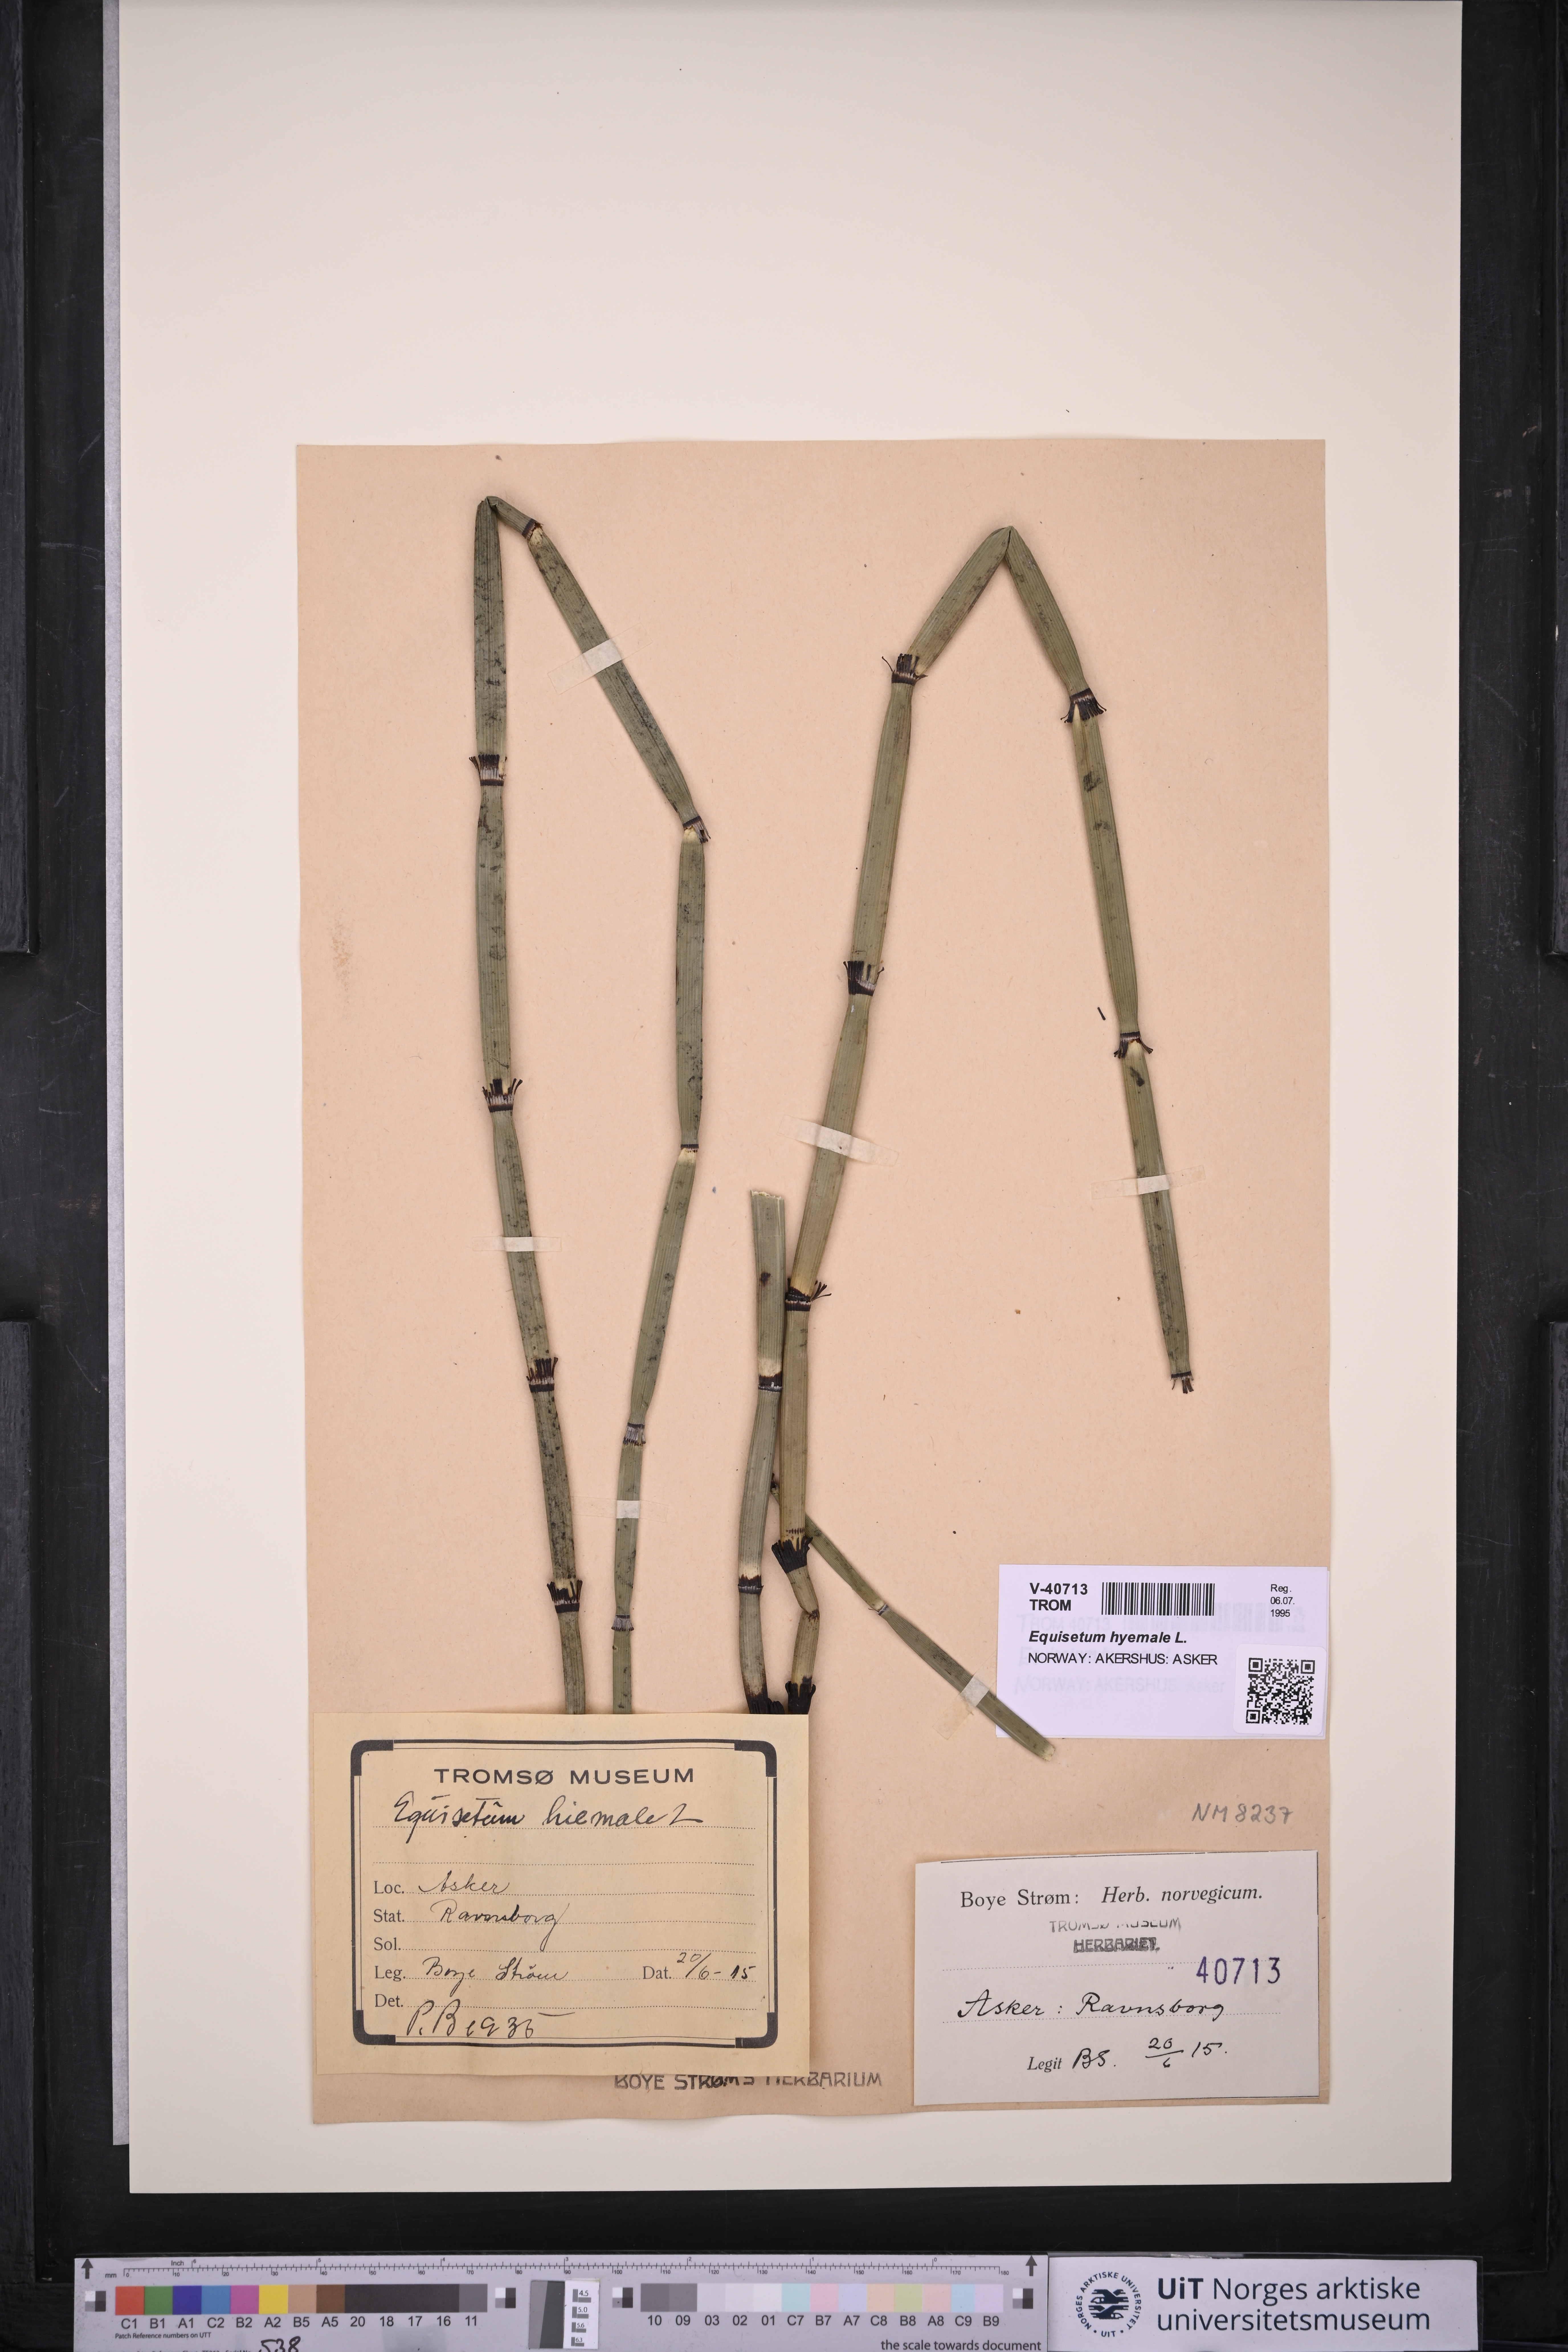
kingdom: Plantae
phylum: Tracheophyta
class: Polypodiopsida
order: Equisetales
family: Equisetaceae
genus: Equisetum
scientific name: Equisetum hyemale
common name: Rough horsetail
